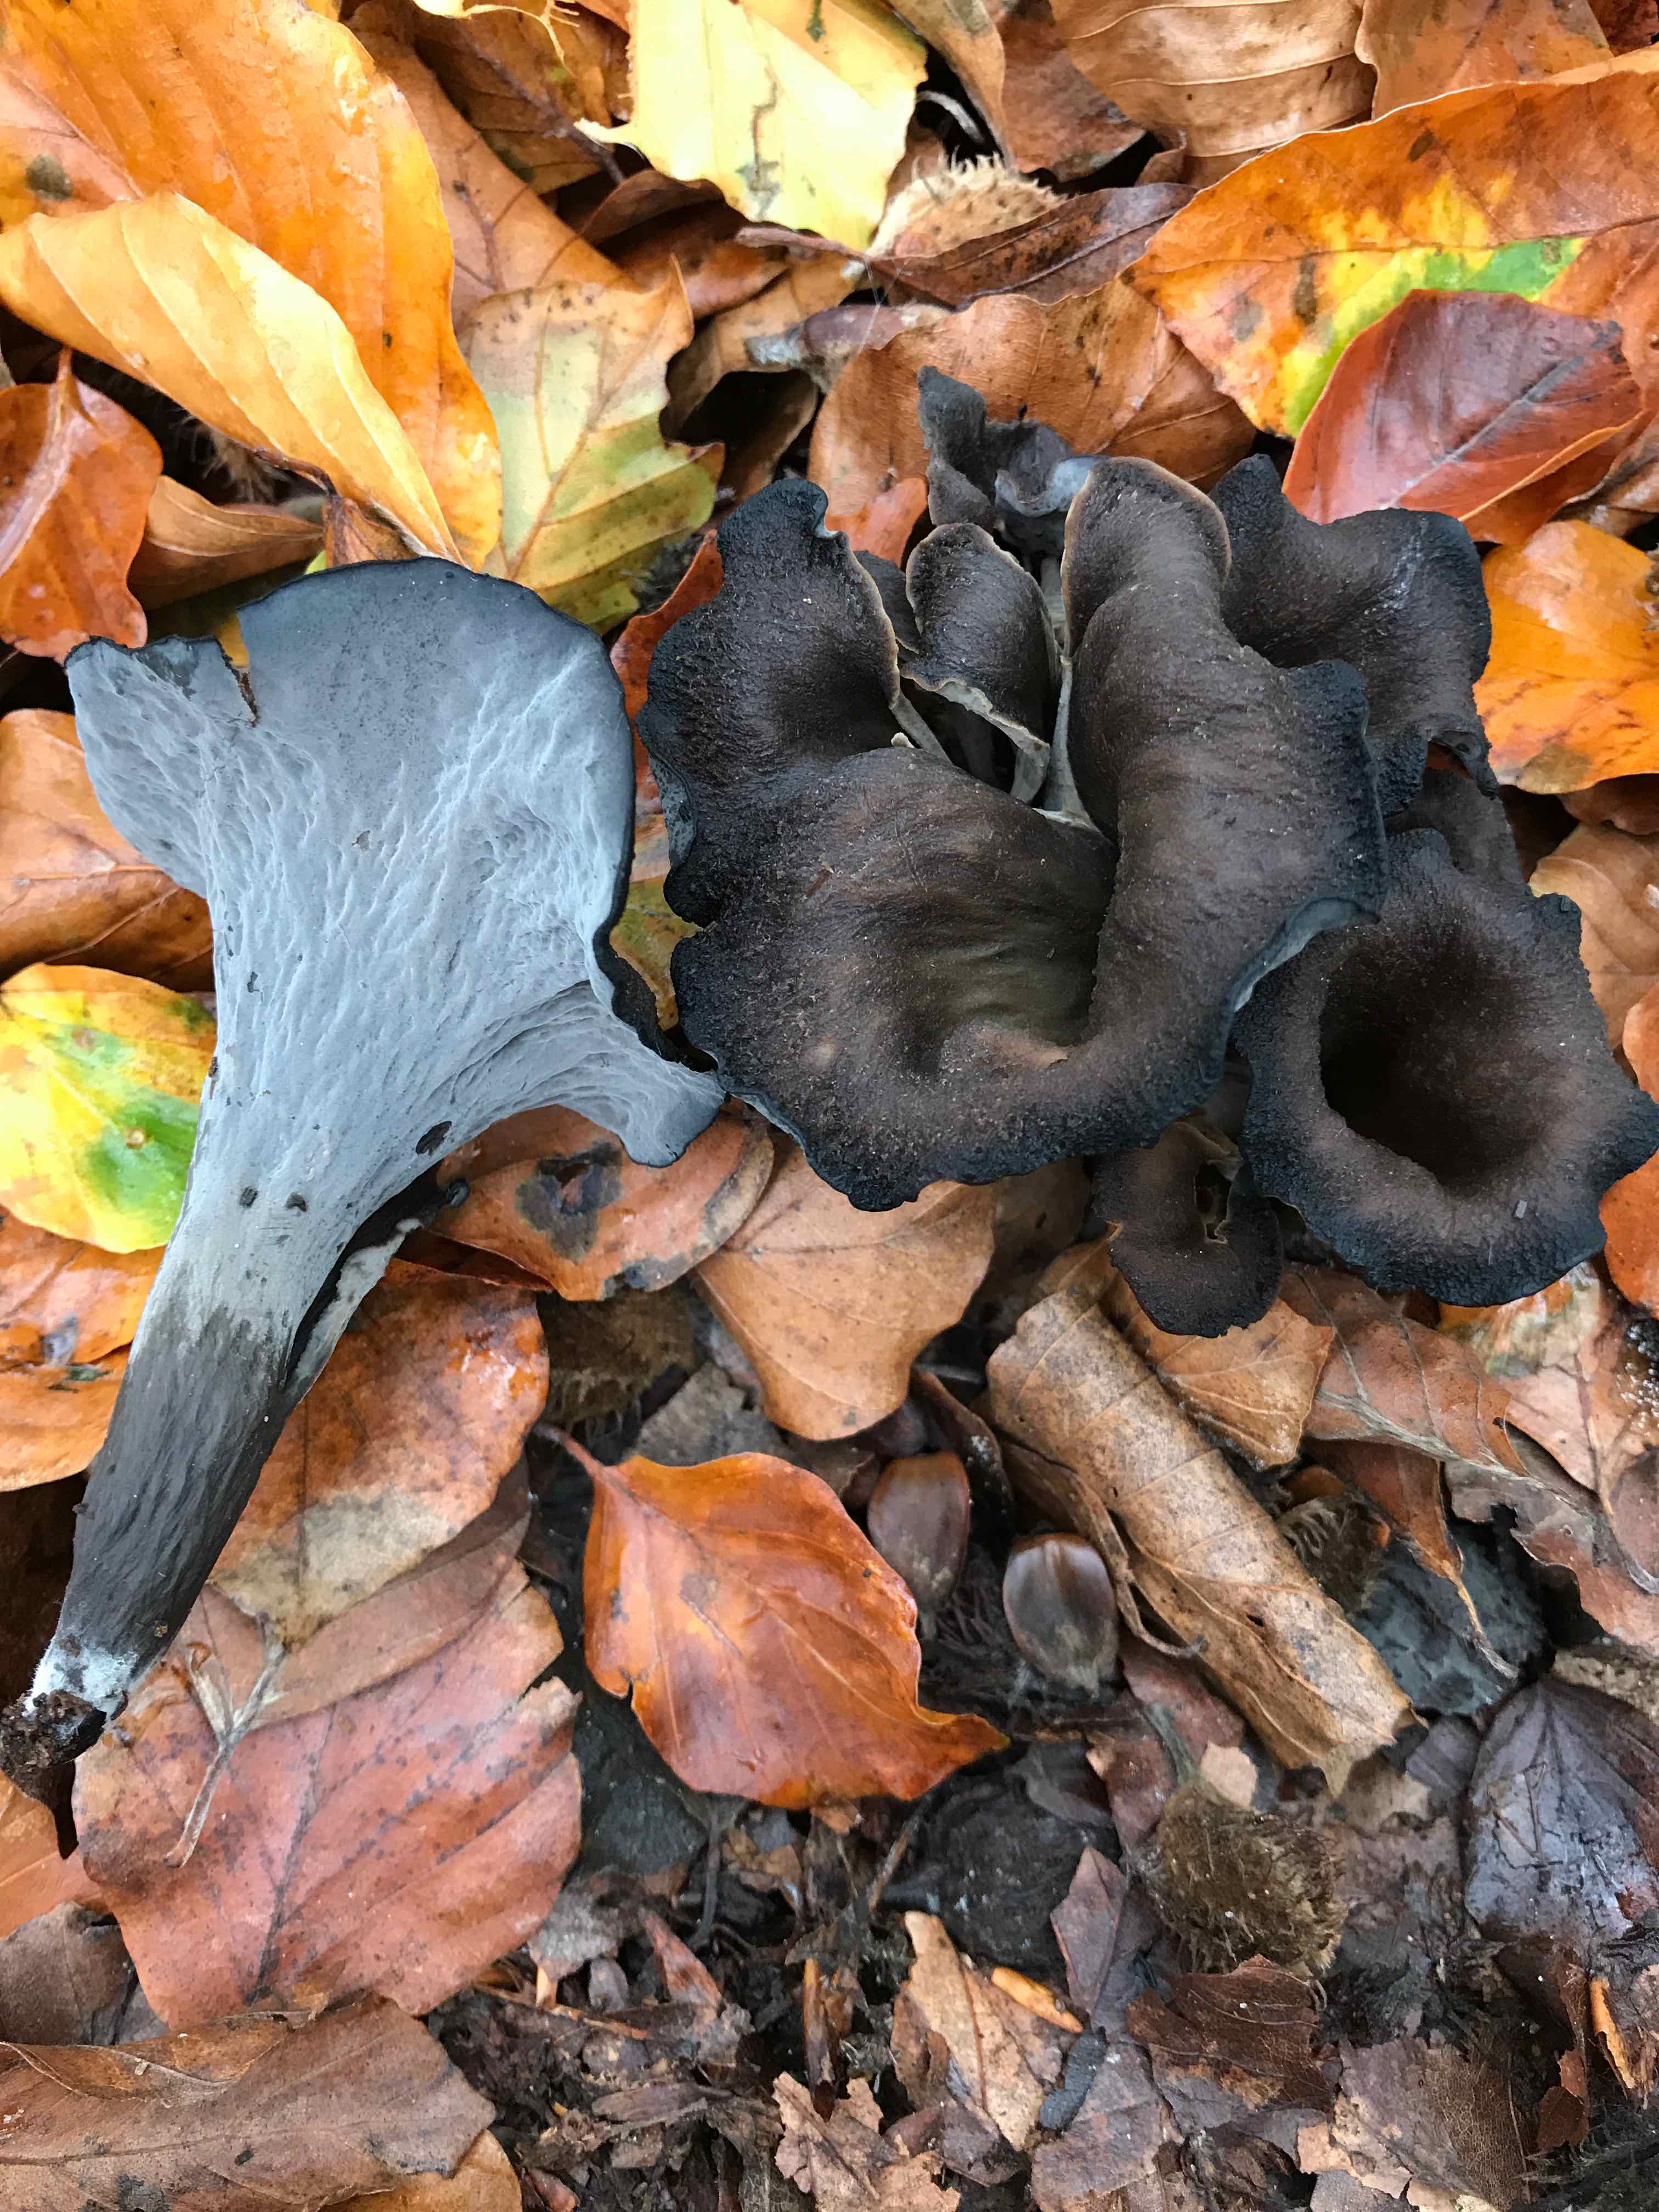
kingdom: Fungi
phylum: Basidiomycota
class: Agaricomycetes
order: Cantharellales
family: Hydnaceae
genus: Craterellus
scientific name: Craterellus cornucopioides
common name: trompetsvamp
